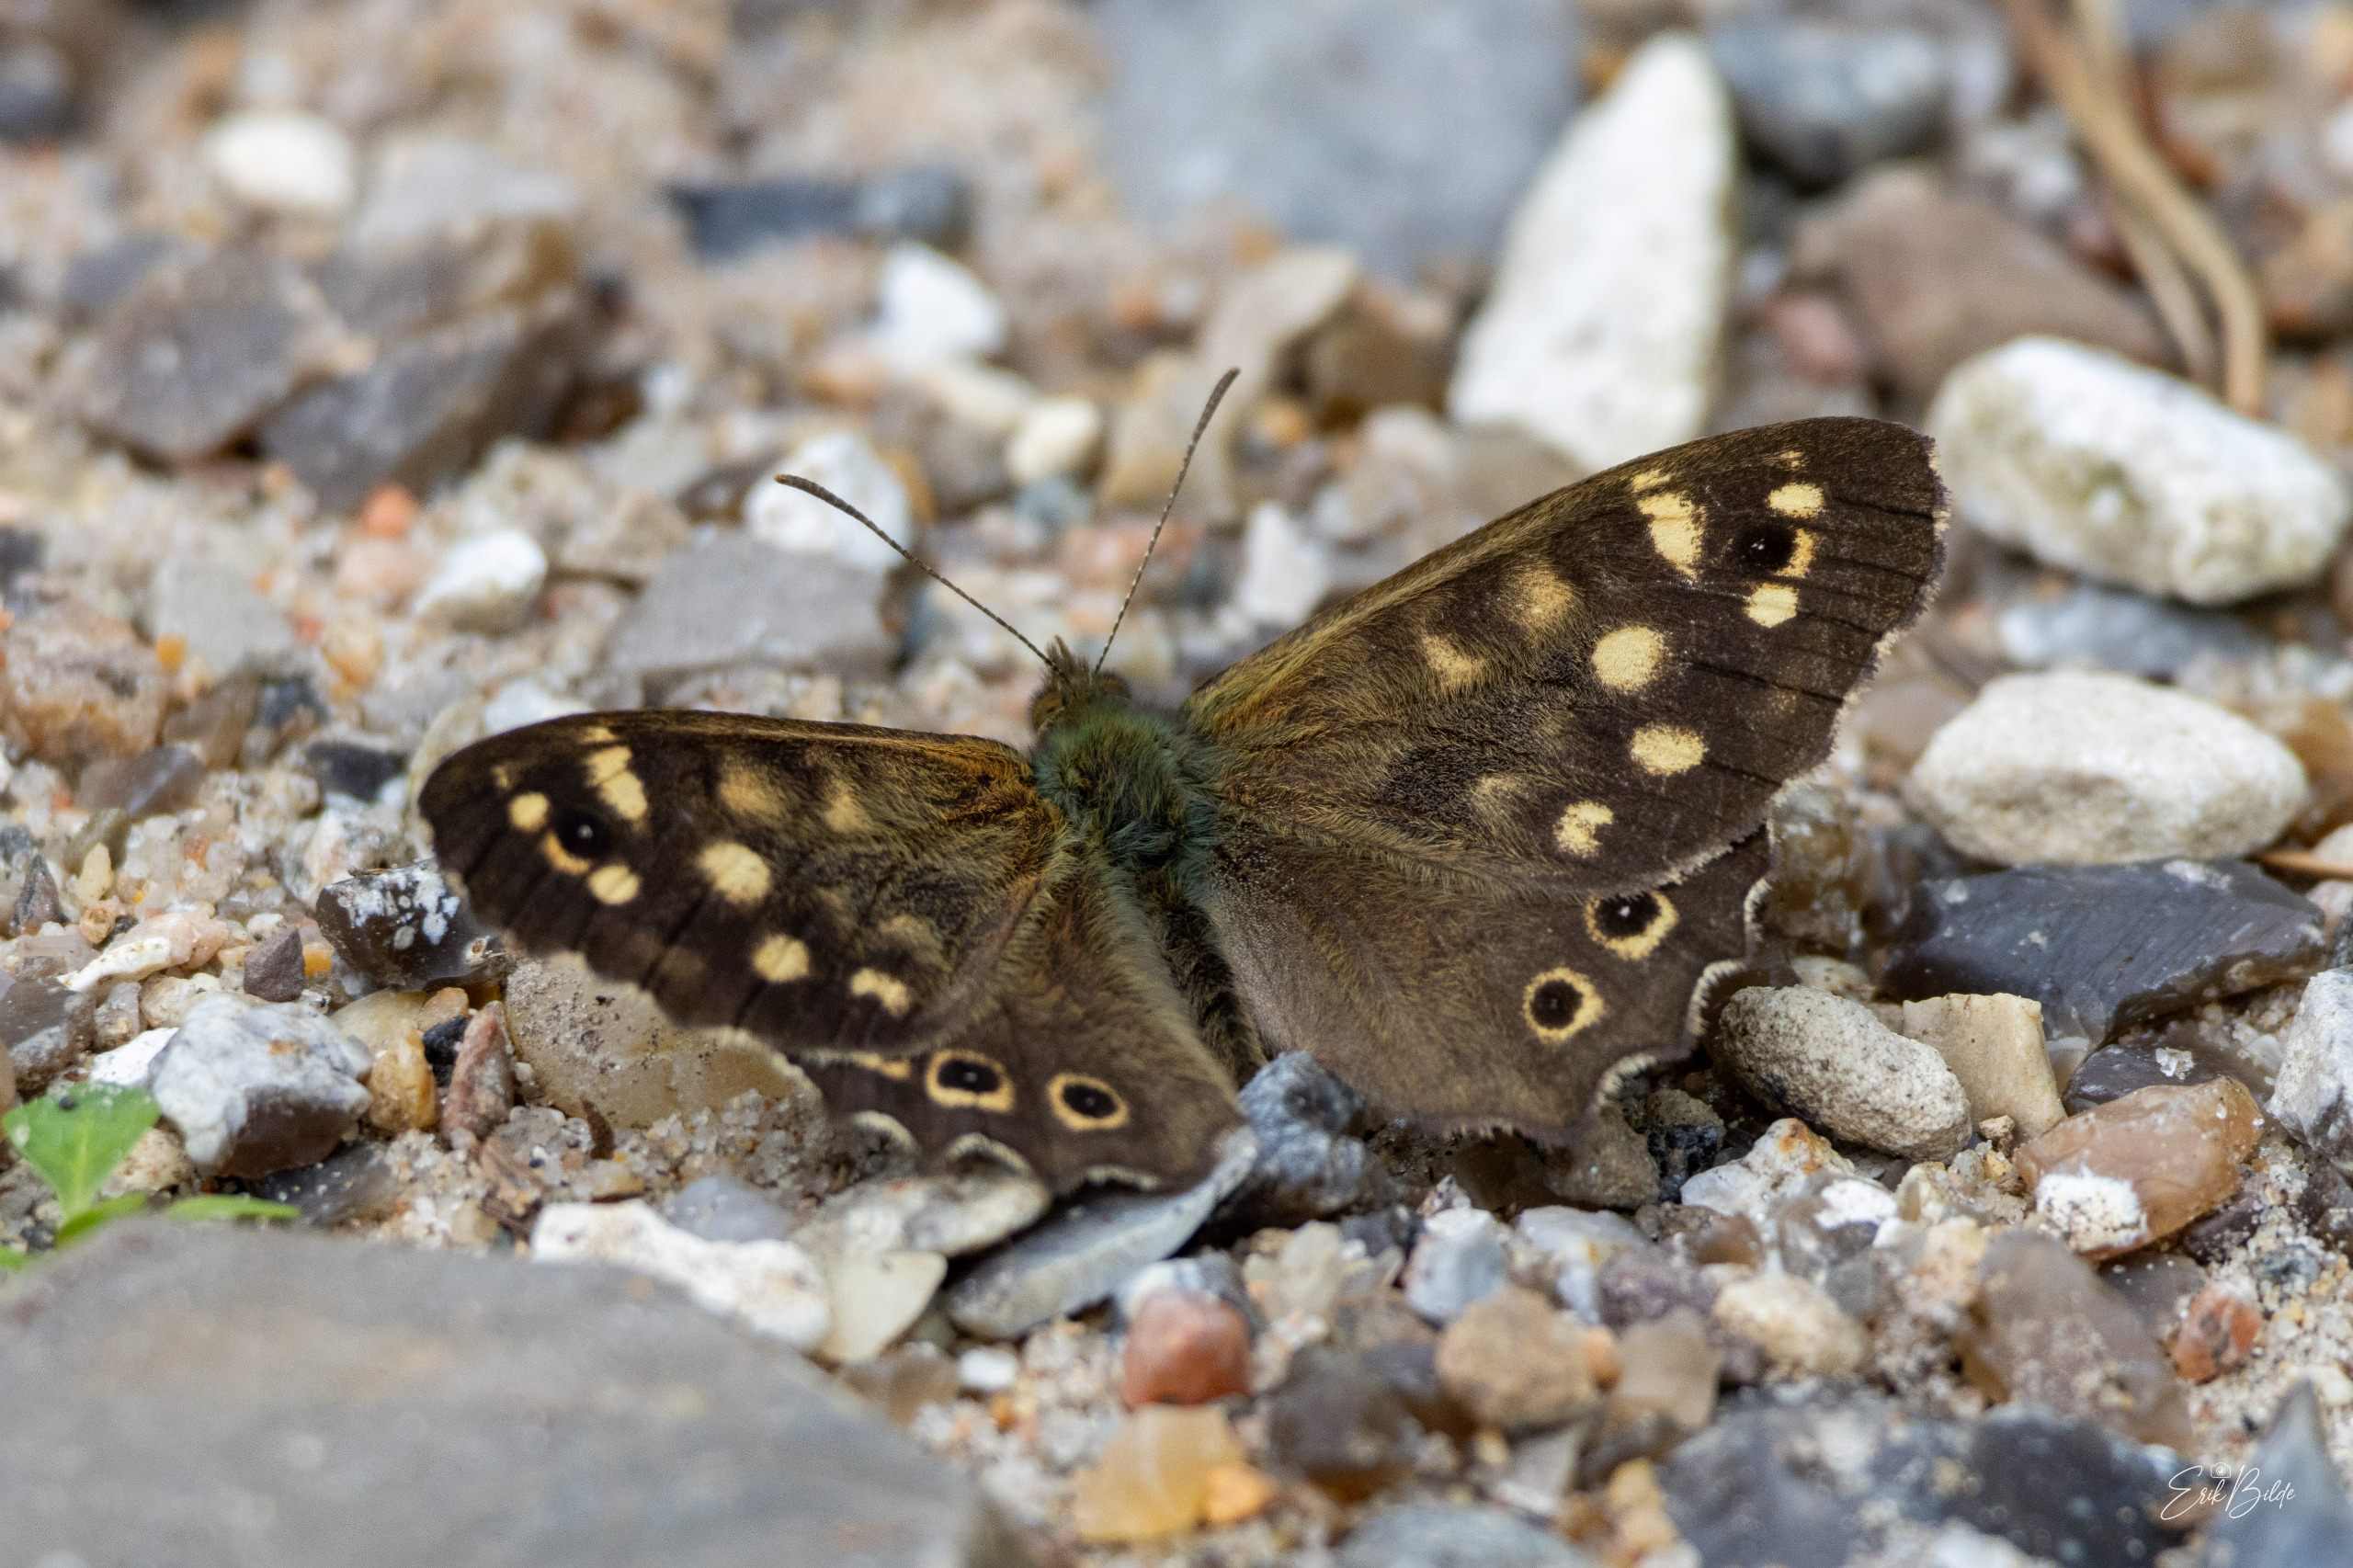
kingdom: Animalia
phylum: Arthropoda
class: Insecta
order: Lepidoptera
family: Nymphalidae
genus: Pararge
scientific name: Pararge aegeria
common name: Skovrandøje
